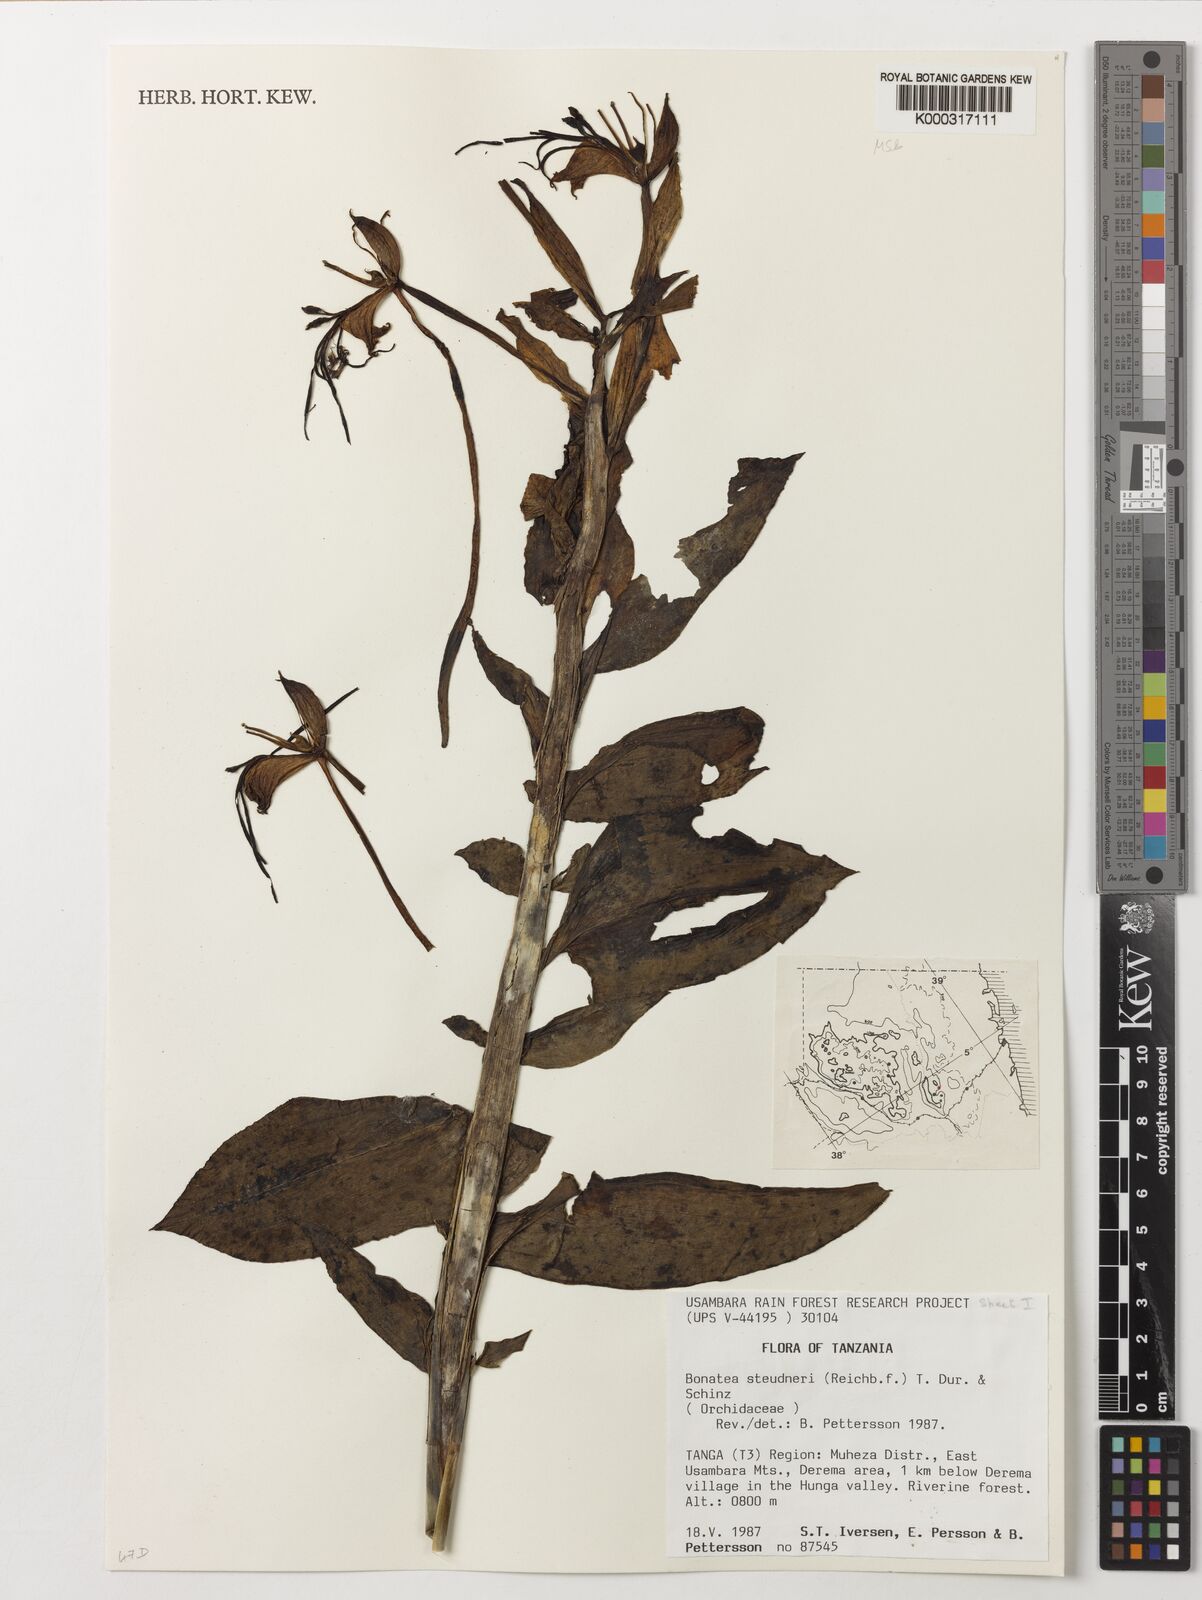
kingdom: Plantae
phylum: Tracheophyta
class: Liliopsida
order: Asparagales
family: Orchidaceae
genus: Bonatea
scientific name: Bonatea steudneri
